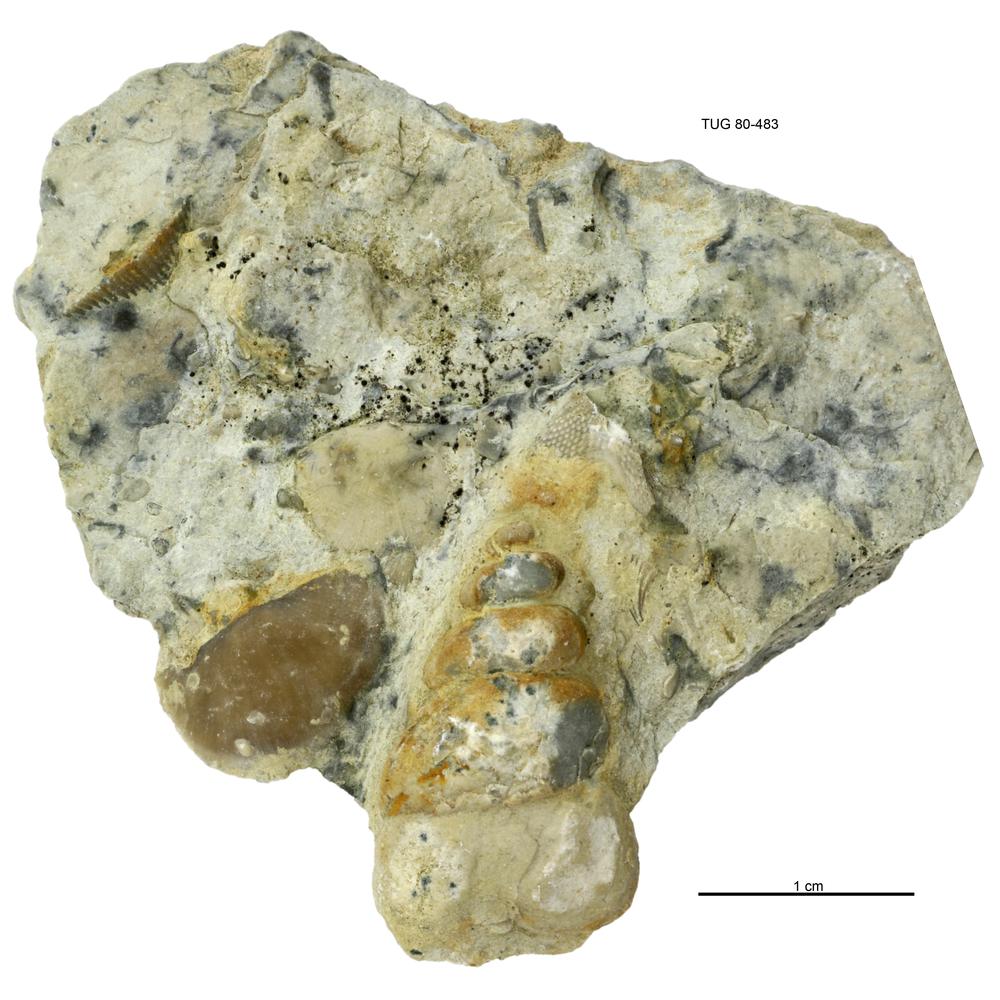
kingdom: Animalia
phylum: Mollusca
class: Gastropoda
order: Pleurotomariida
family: Murchisoniidae
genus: Murchisonia
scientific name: Murchisonia insignis
